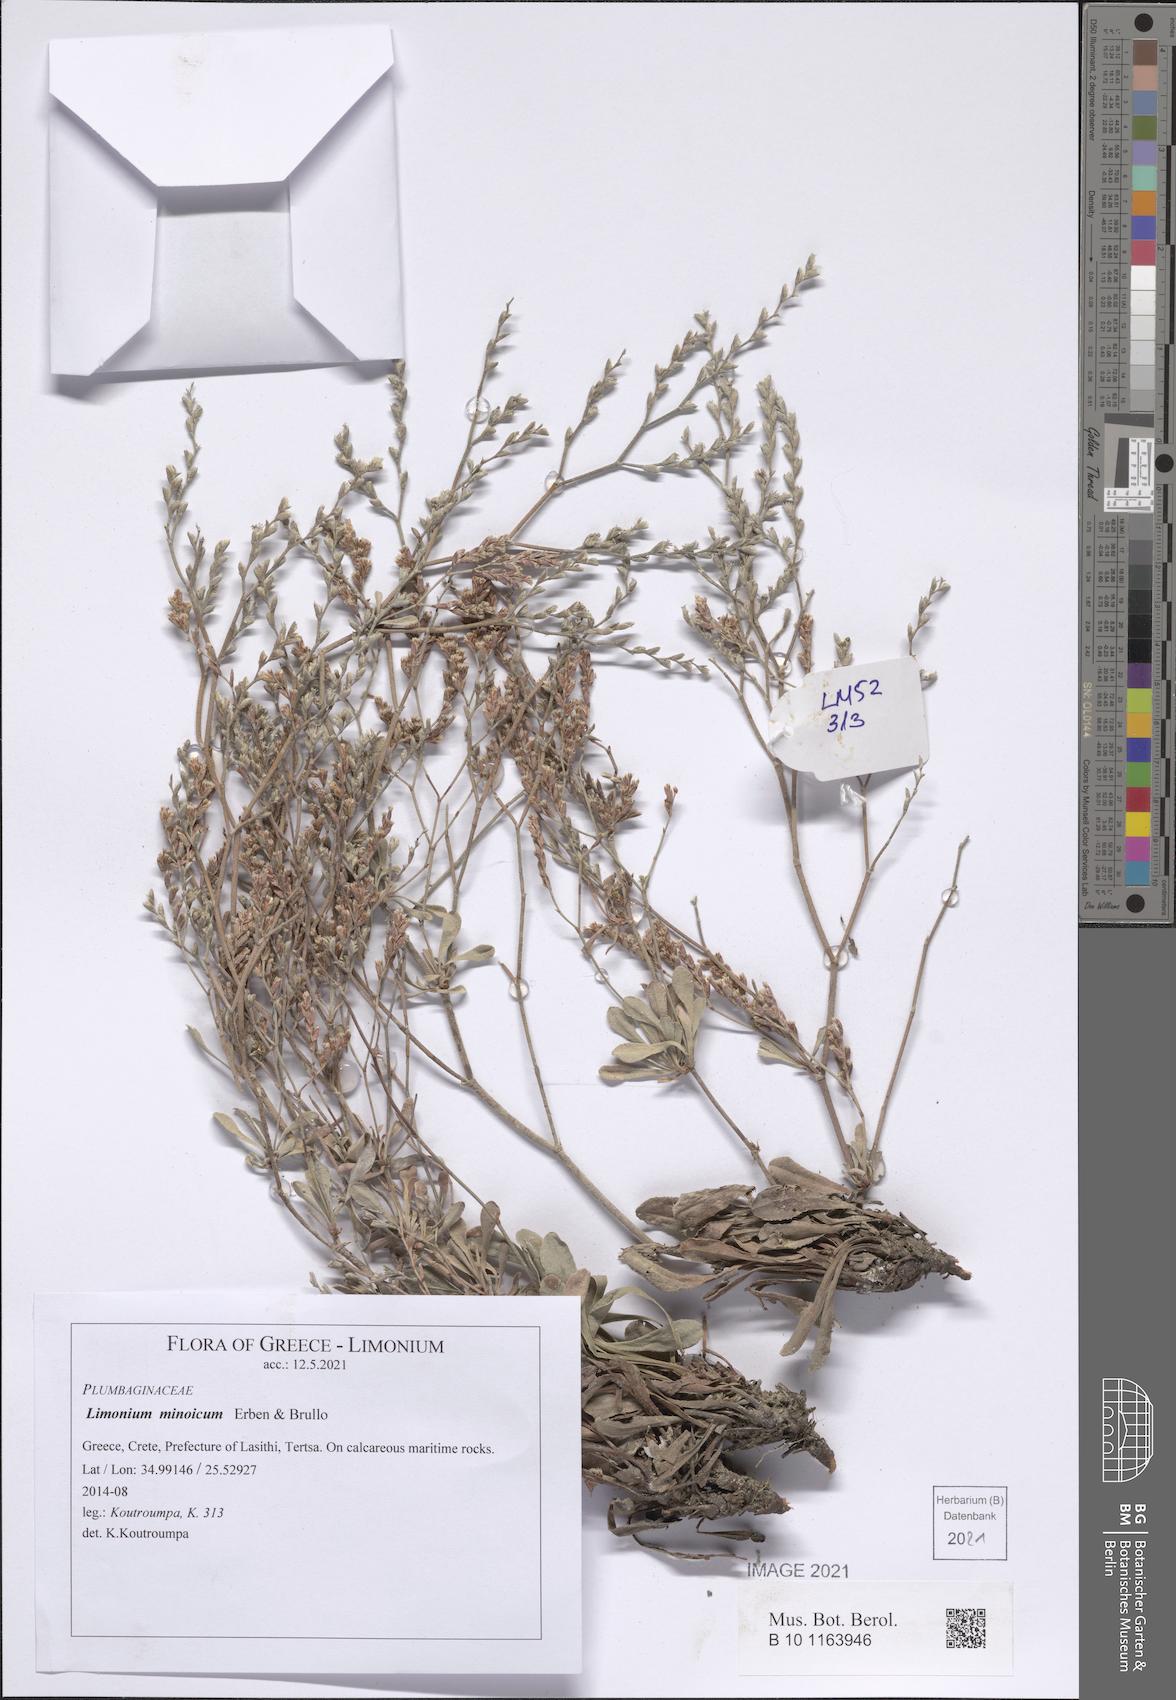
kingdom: Plantae
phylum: Tracheophyta
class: Magnoliopsida
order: Caryophyllales
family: Plumbaginaceae
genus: Limonium
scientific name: Limonium minoicum
